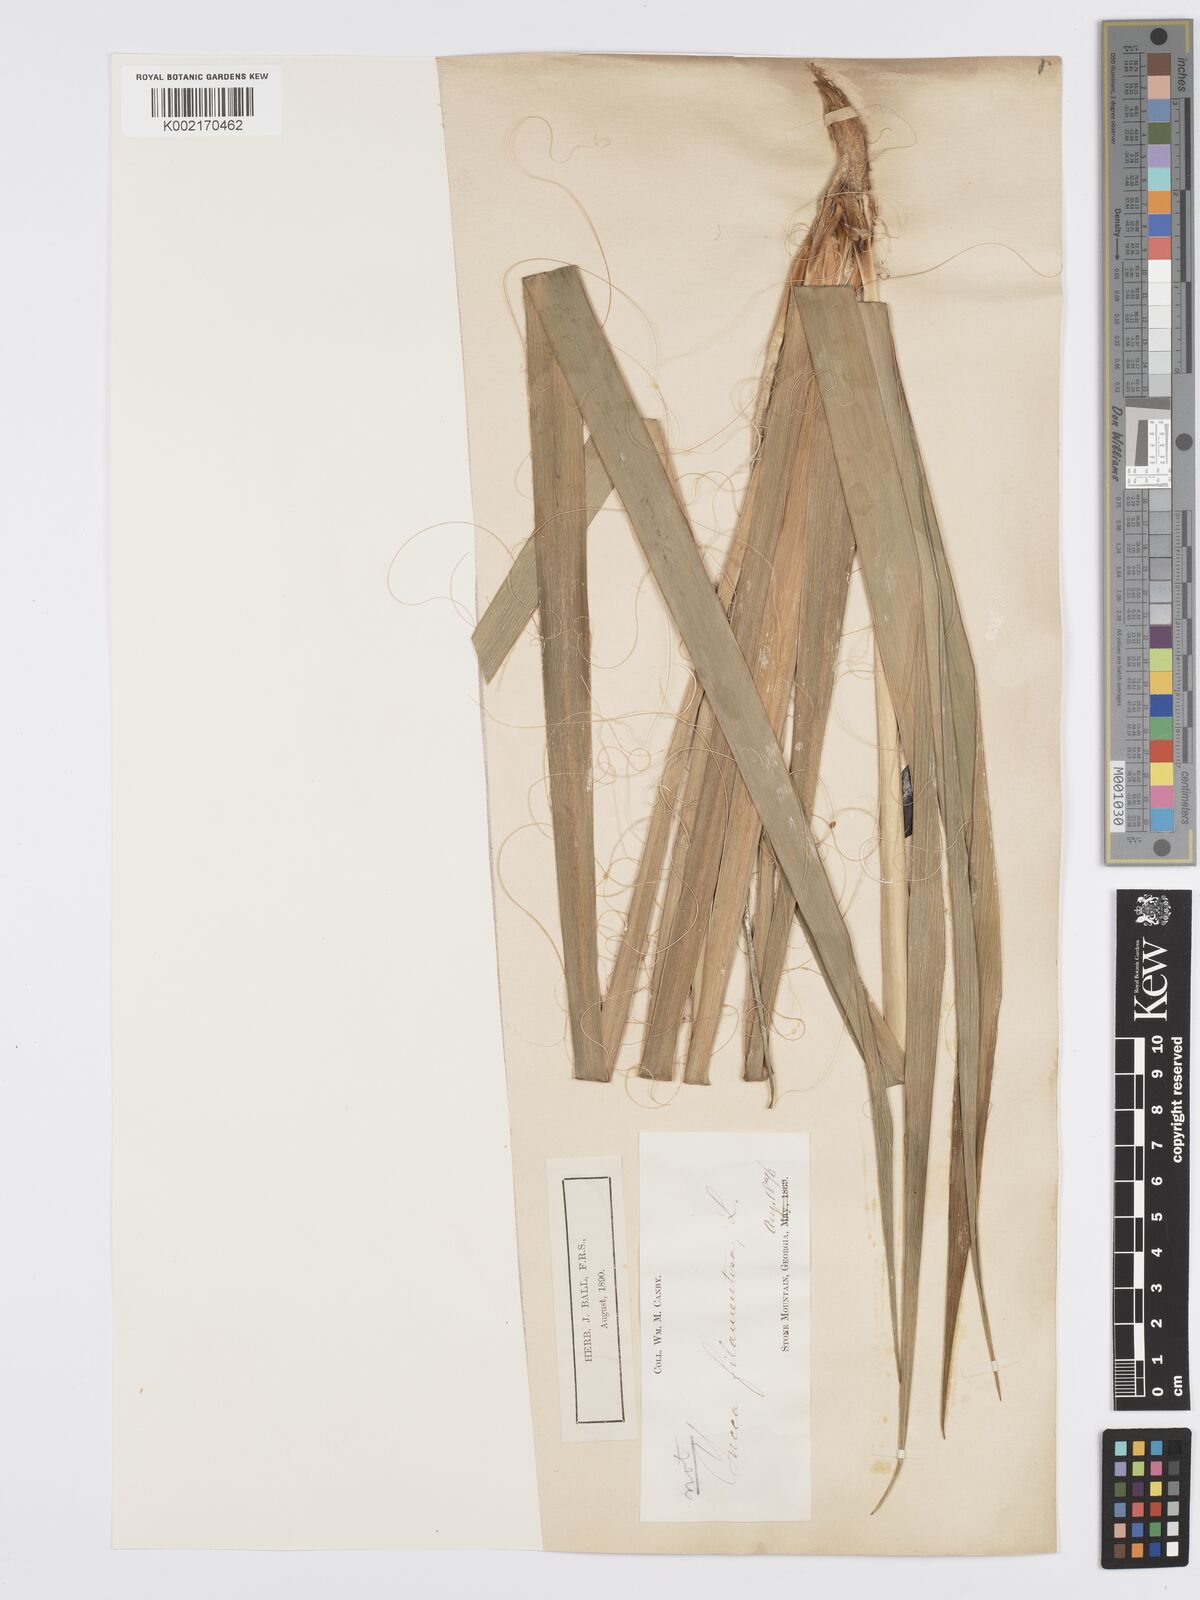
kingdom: Plantae
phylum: Tracheophyta
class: Liliopsida
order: Asparagales
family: Asparagaceae
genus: Yucca
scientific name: Yucca filamentosa
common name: Adam's-needle
